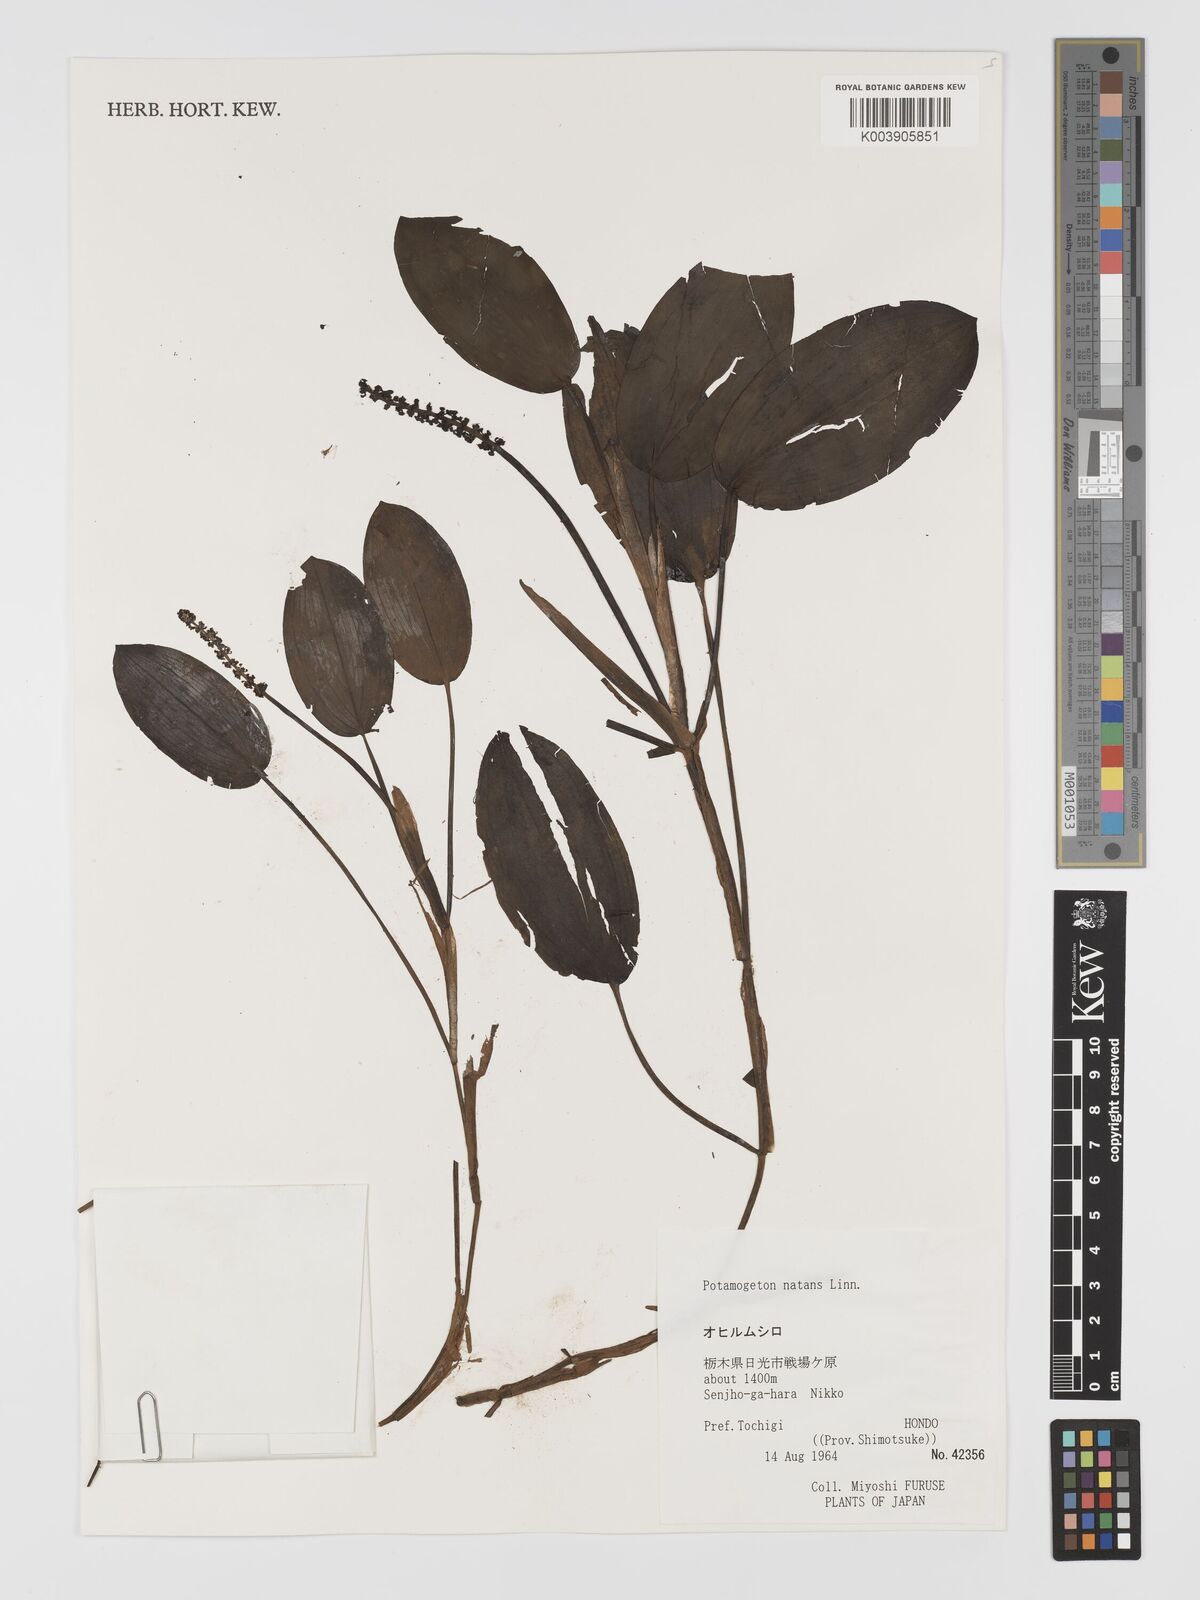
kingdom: Plantae
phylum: Tracheophyta
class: Liliopsida
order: Alismatales
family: Potamogetonaceae
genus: Potamogeton
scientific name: Potamogeton natans
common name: Broad-leaved pondweed
